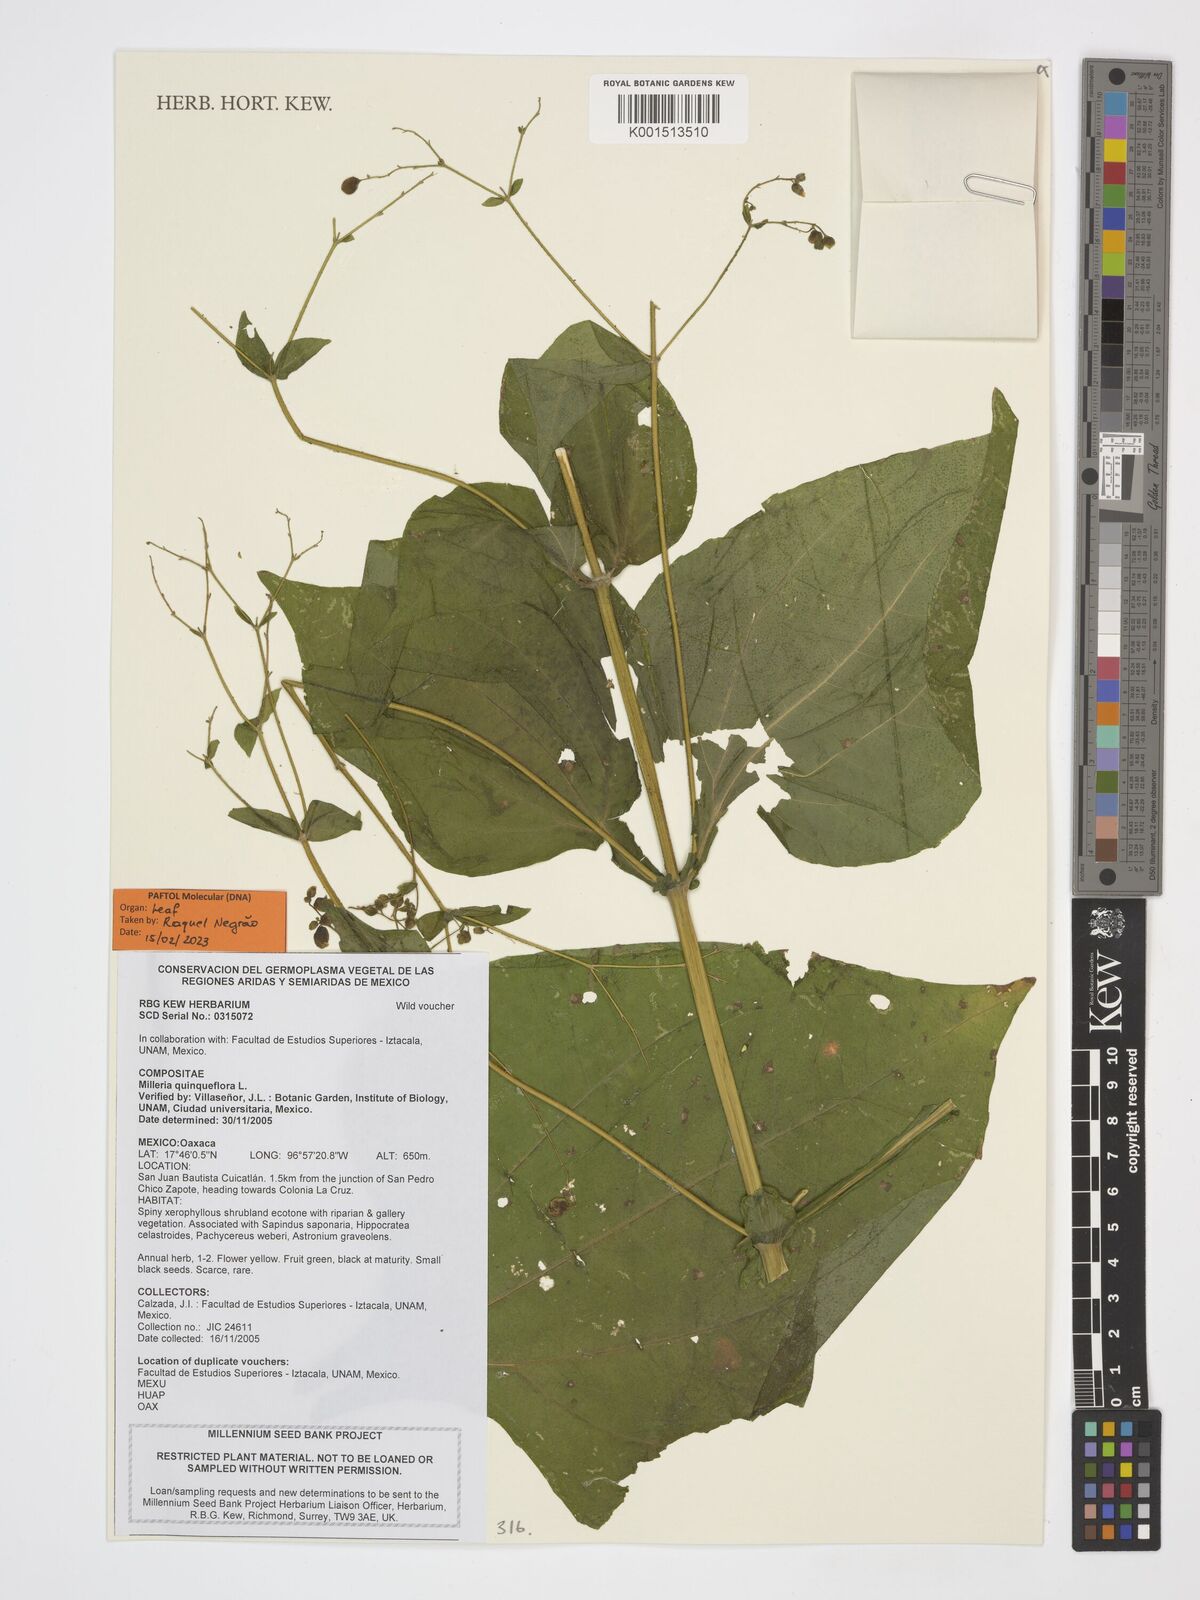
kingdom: Plantae
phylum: Tracheophyta
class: Magnoliopsida
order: Asterales
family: Asteraceae
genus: Milleria
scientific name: Milleria quinqueflora
